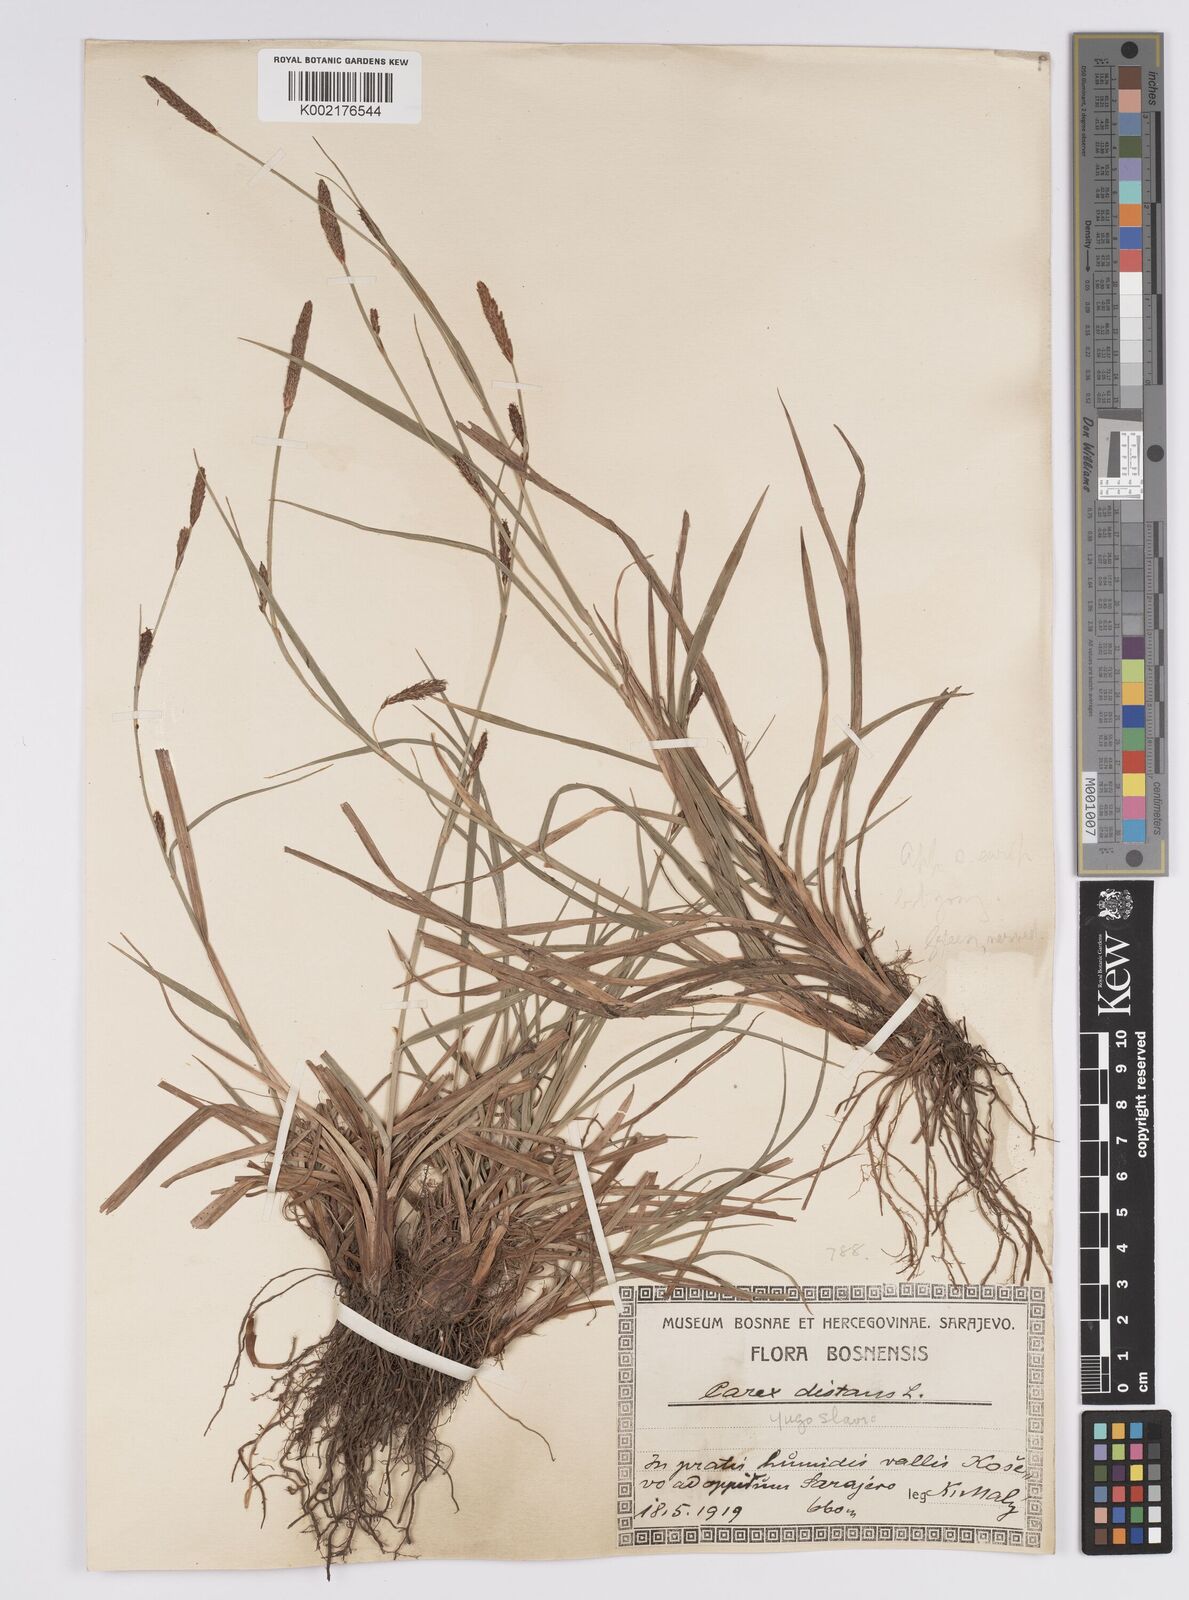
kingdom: Plantae
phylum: Tracheophyta
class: Liliopsida
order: Poales
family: Cyperaceae
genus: Carex
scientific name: Carex distans
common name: Distant sedge
